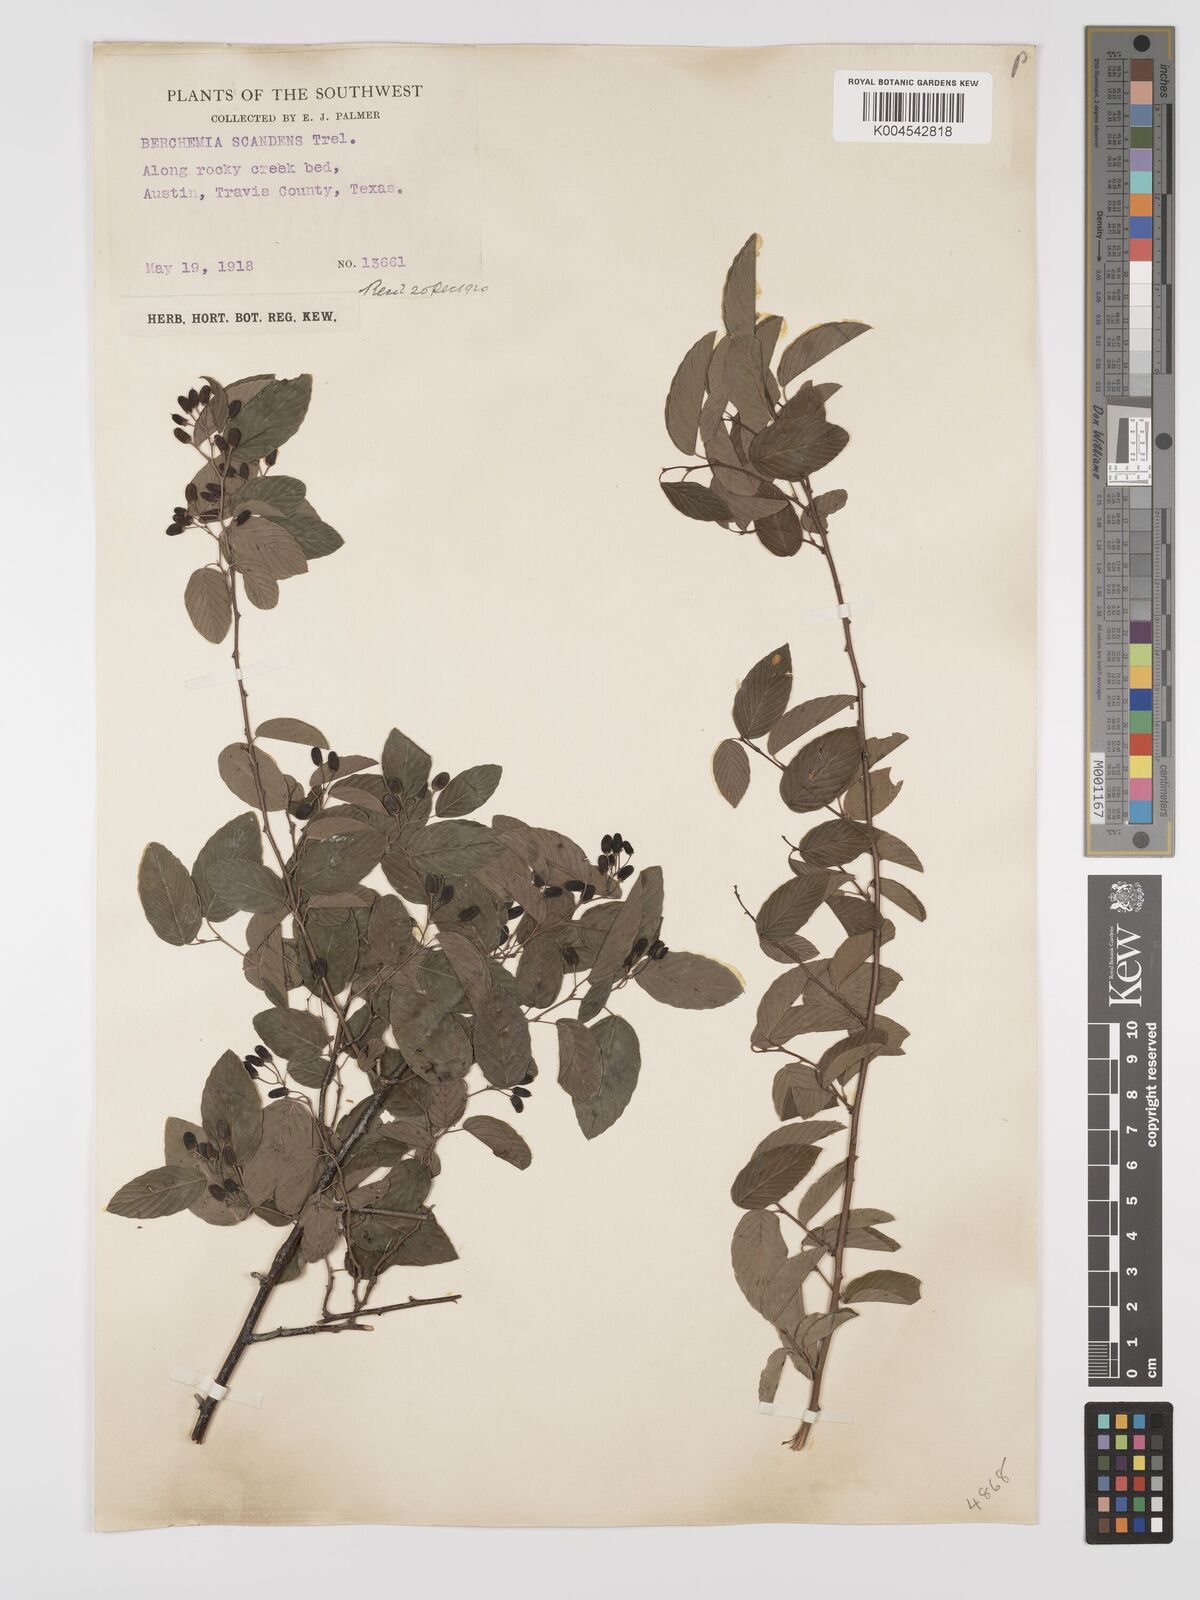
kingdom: Plantae
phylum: Tracheophyta
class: Magnoliopsida
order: Rosales
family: Rhamnaceae
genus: Berchemia
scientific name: Berchemia scandens
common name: Supplejack
